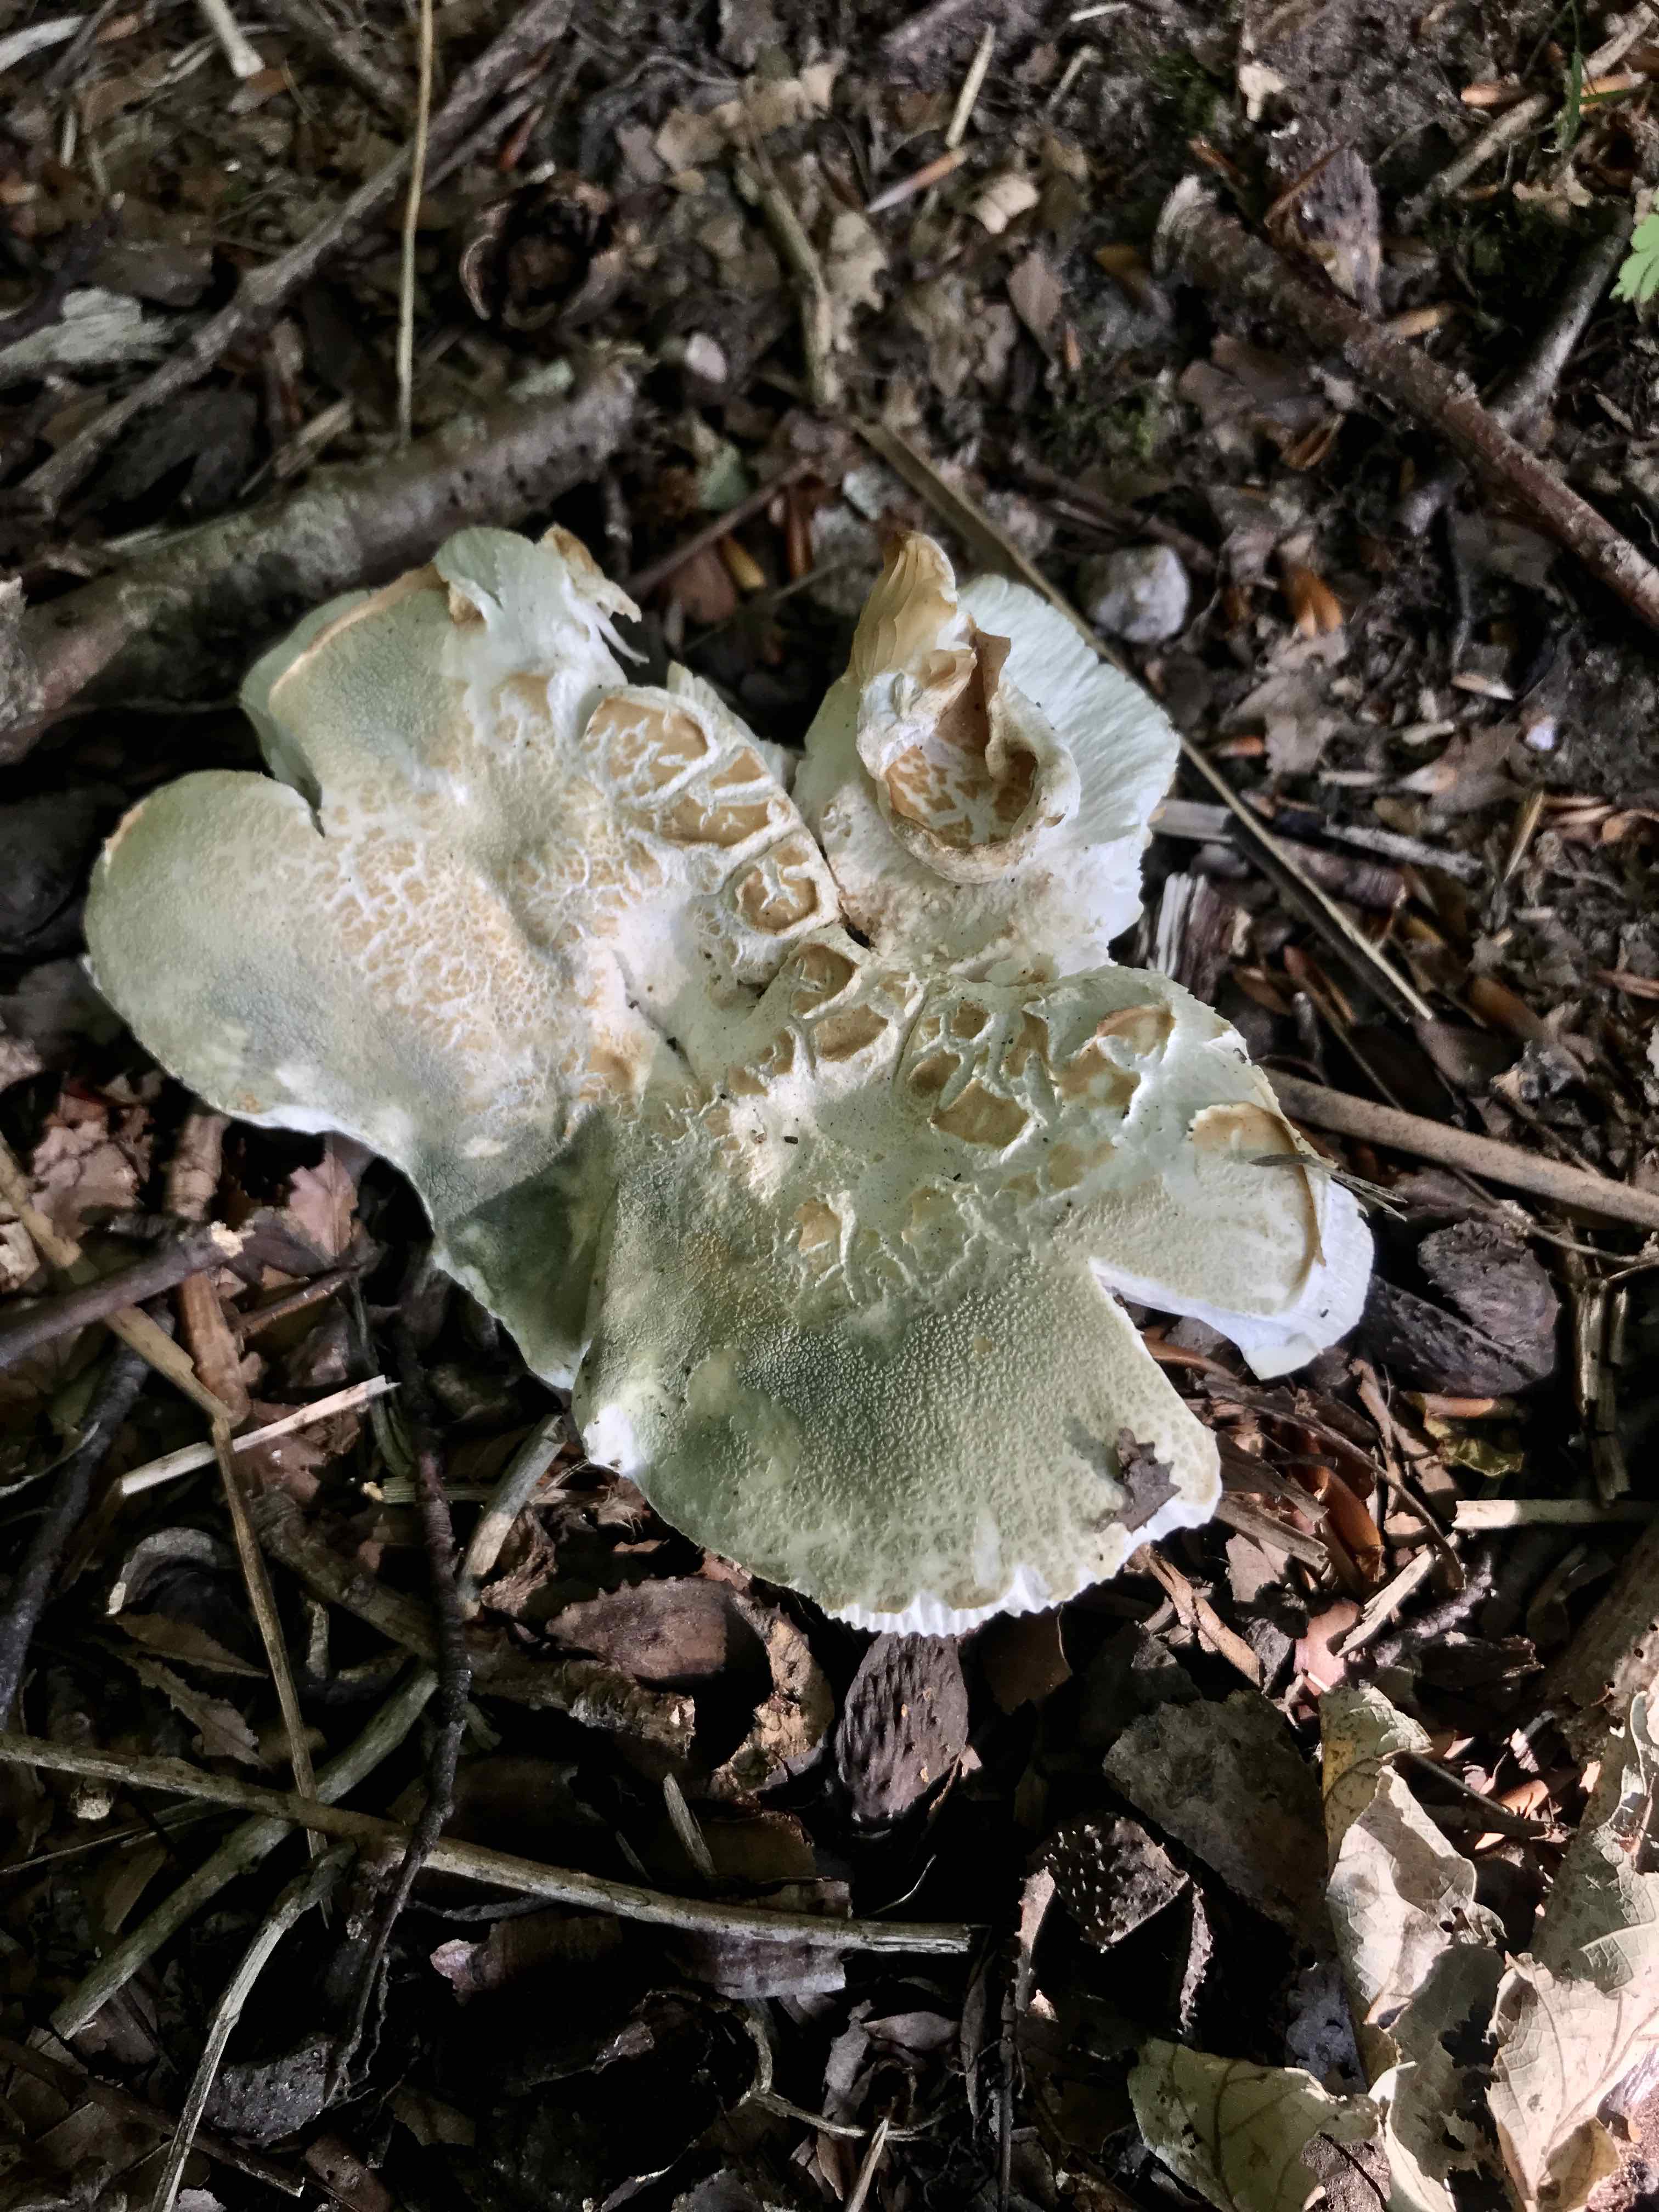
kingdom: Fungi
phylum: Basidiomycota
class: Agaricomycetes
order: Russulales
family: Russulaceae
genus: Russula
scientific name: Russula virescens
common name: spanskgrøn skørhat
